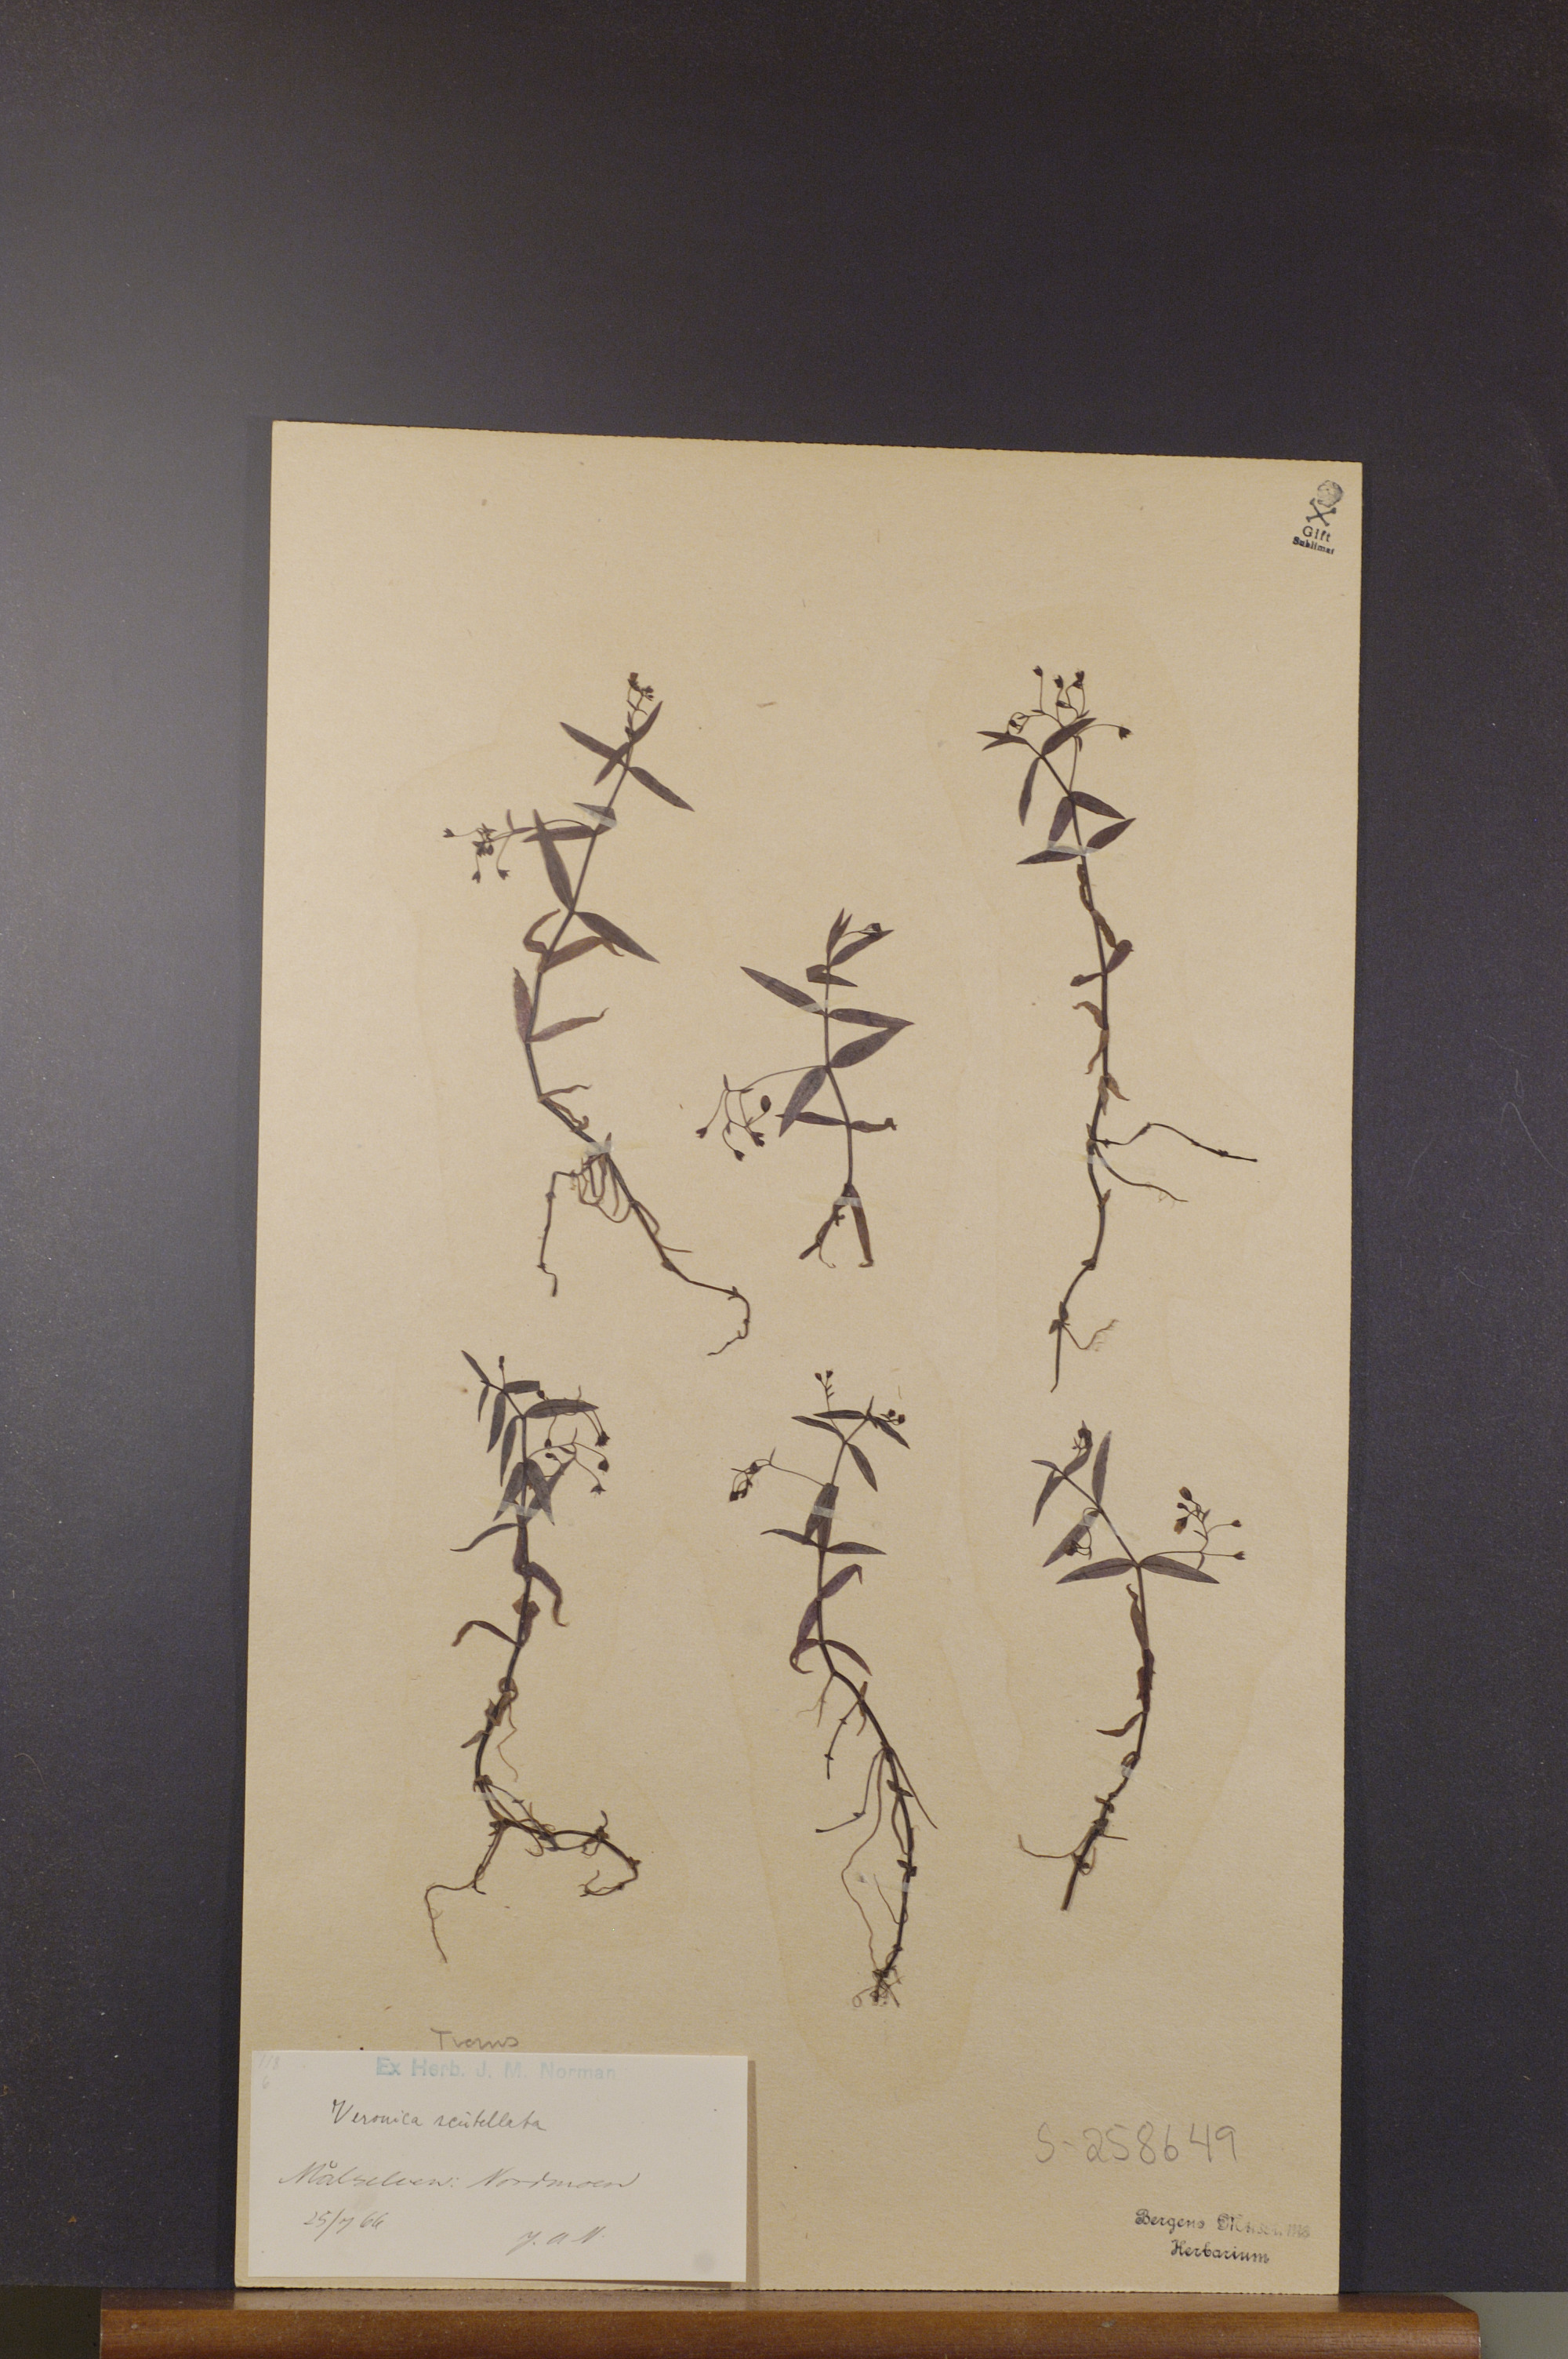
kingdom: Plantae
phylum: Tracheophyta
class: Magnoliopsida
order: Lamiales
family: Plantaginaceae
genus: Veronica
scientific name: Veronica scutellata
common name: Marsh speedwell
